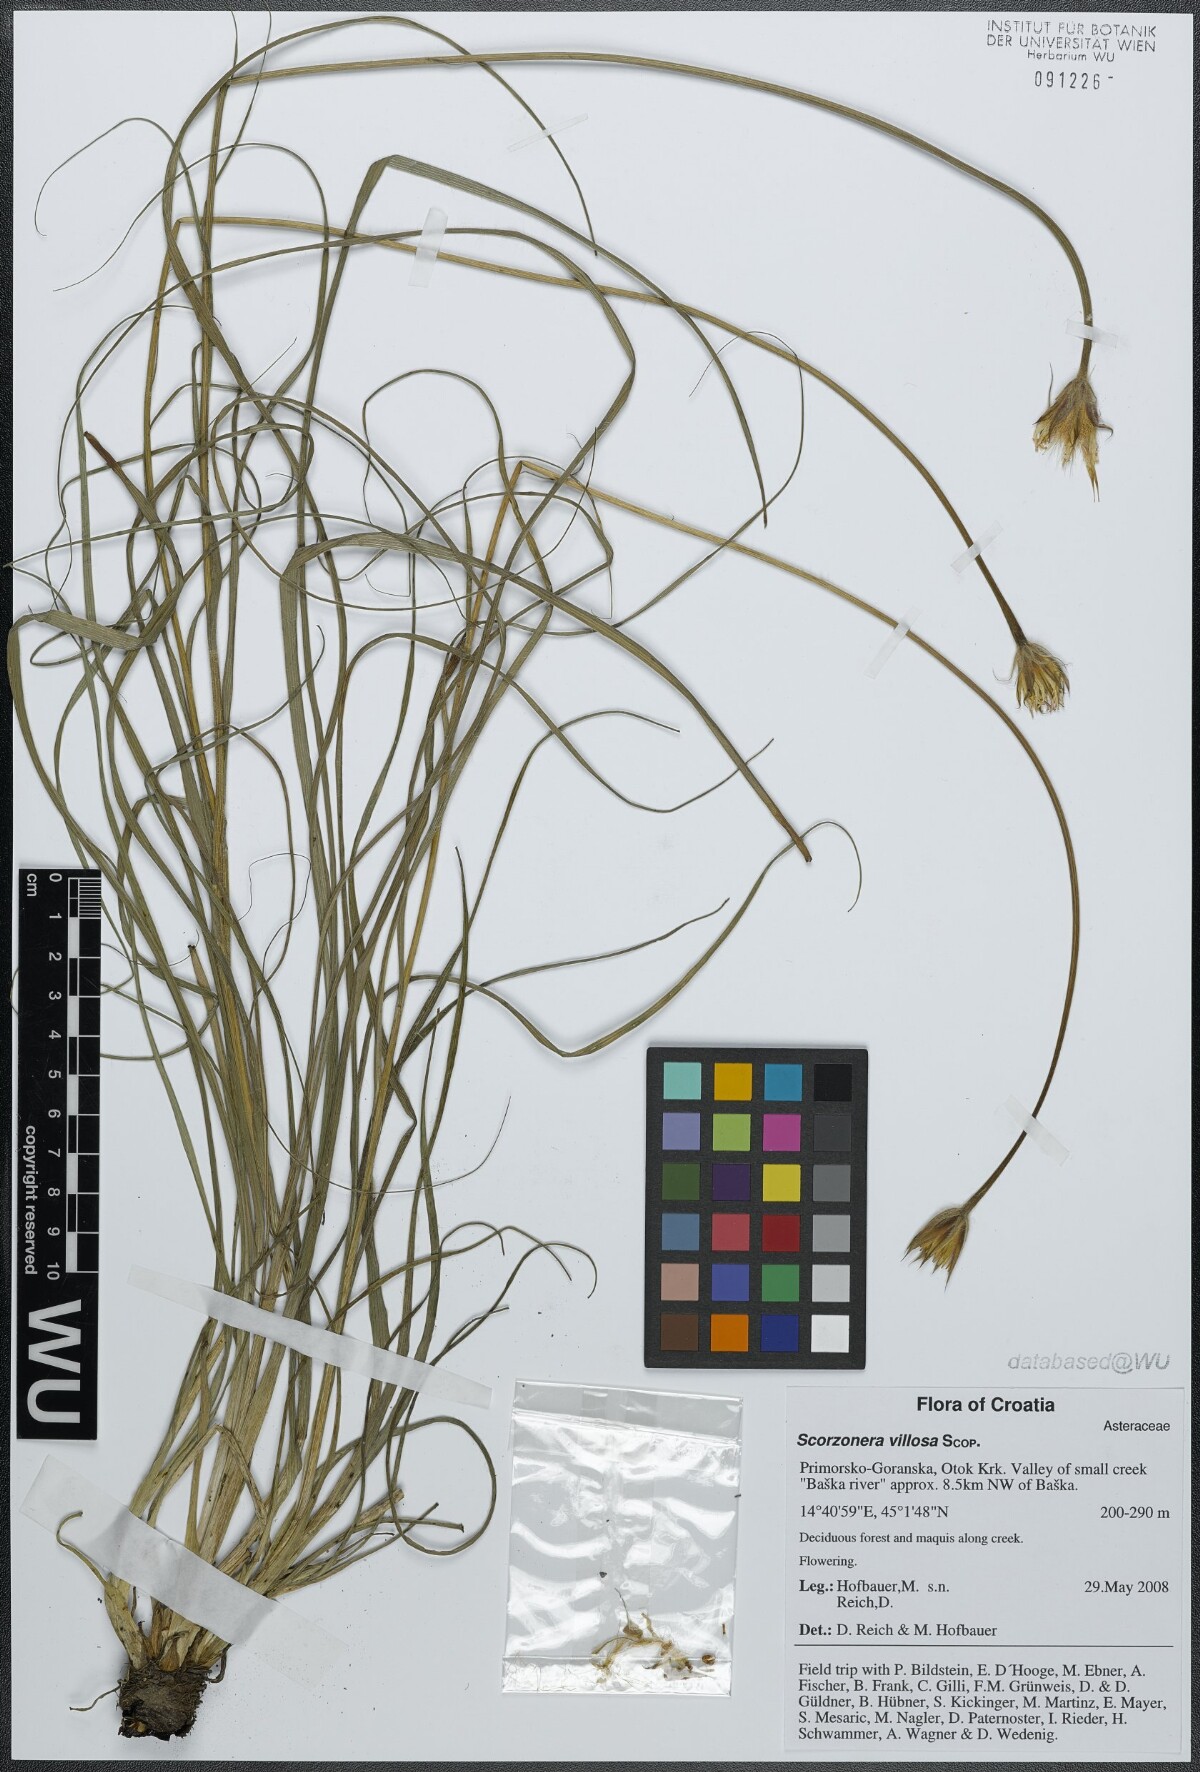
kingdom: Plantae
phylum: Tracheophyta
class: Magnoliopsida
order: Asterales
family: Asteraceae
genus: Gelasia
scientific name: Gelasia villosa
